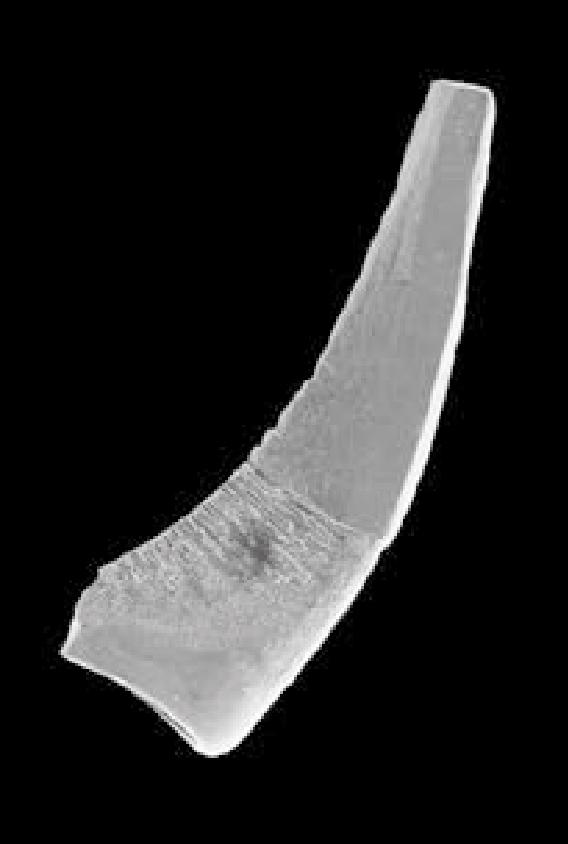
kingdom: Animalia
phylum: Chordata
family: Protopanderodontidae
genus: Juanognathus
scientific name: Juanognathus
